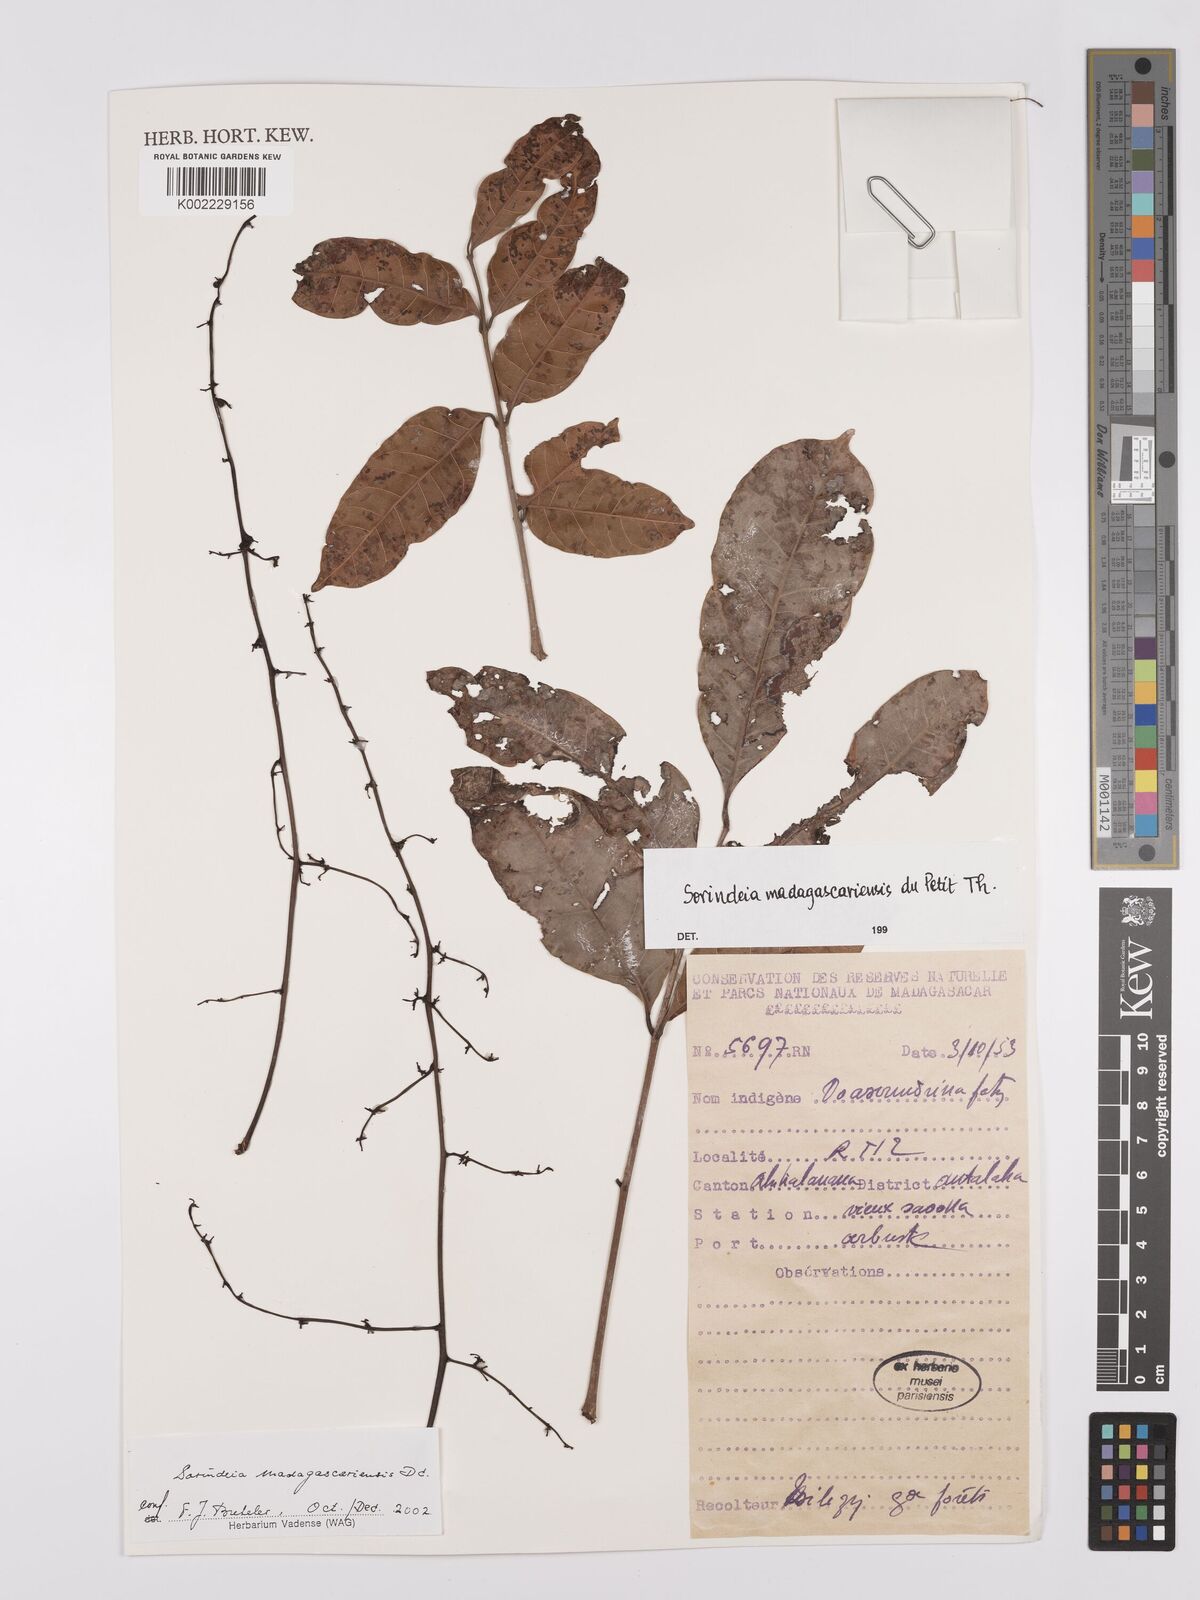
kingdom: Plantae
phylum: Tracheophyta
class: Magnoliopsida
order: Sapindales
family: Anacardiaceae
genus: Sorindeia
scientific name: Sorindeia madagascariensis
